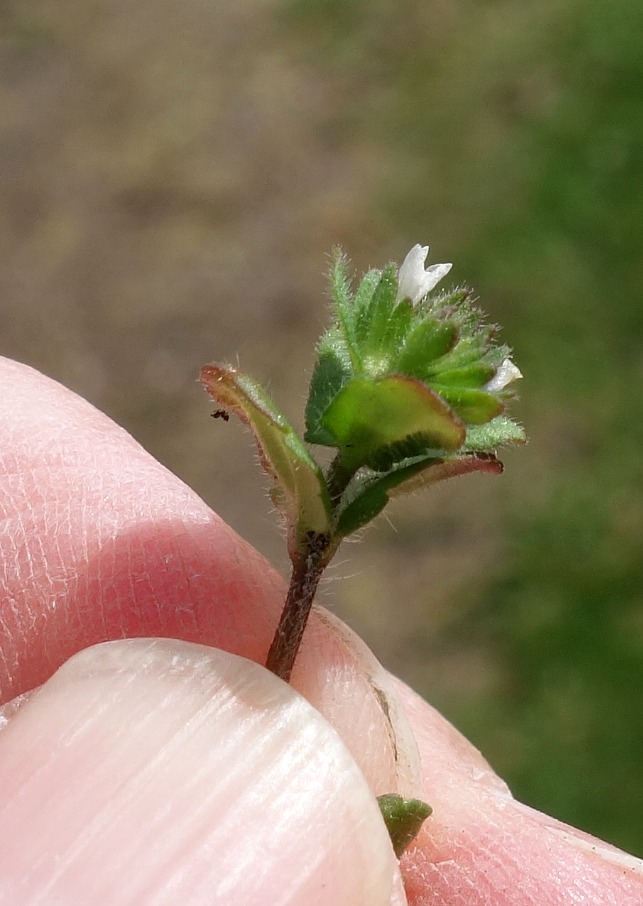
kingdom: Plantae
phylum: Tracheophyta
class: Magnoliopsida
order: Lamiales
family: Plantaginaceae
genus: Veronica
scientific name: Veronica arvensis
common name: Mark-ærenpris
